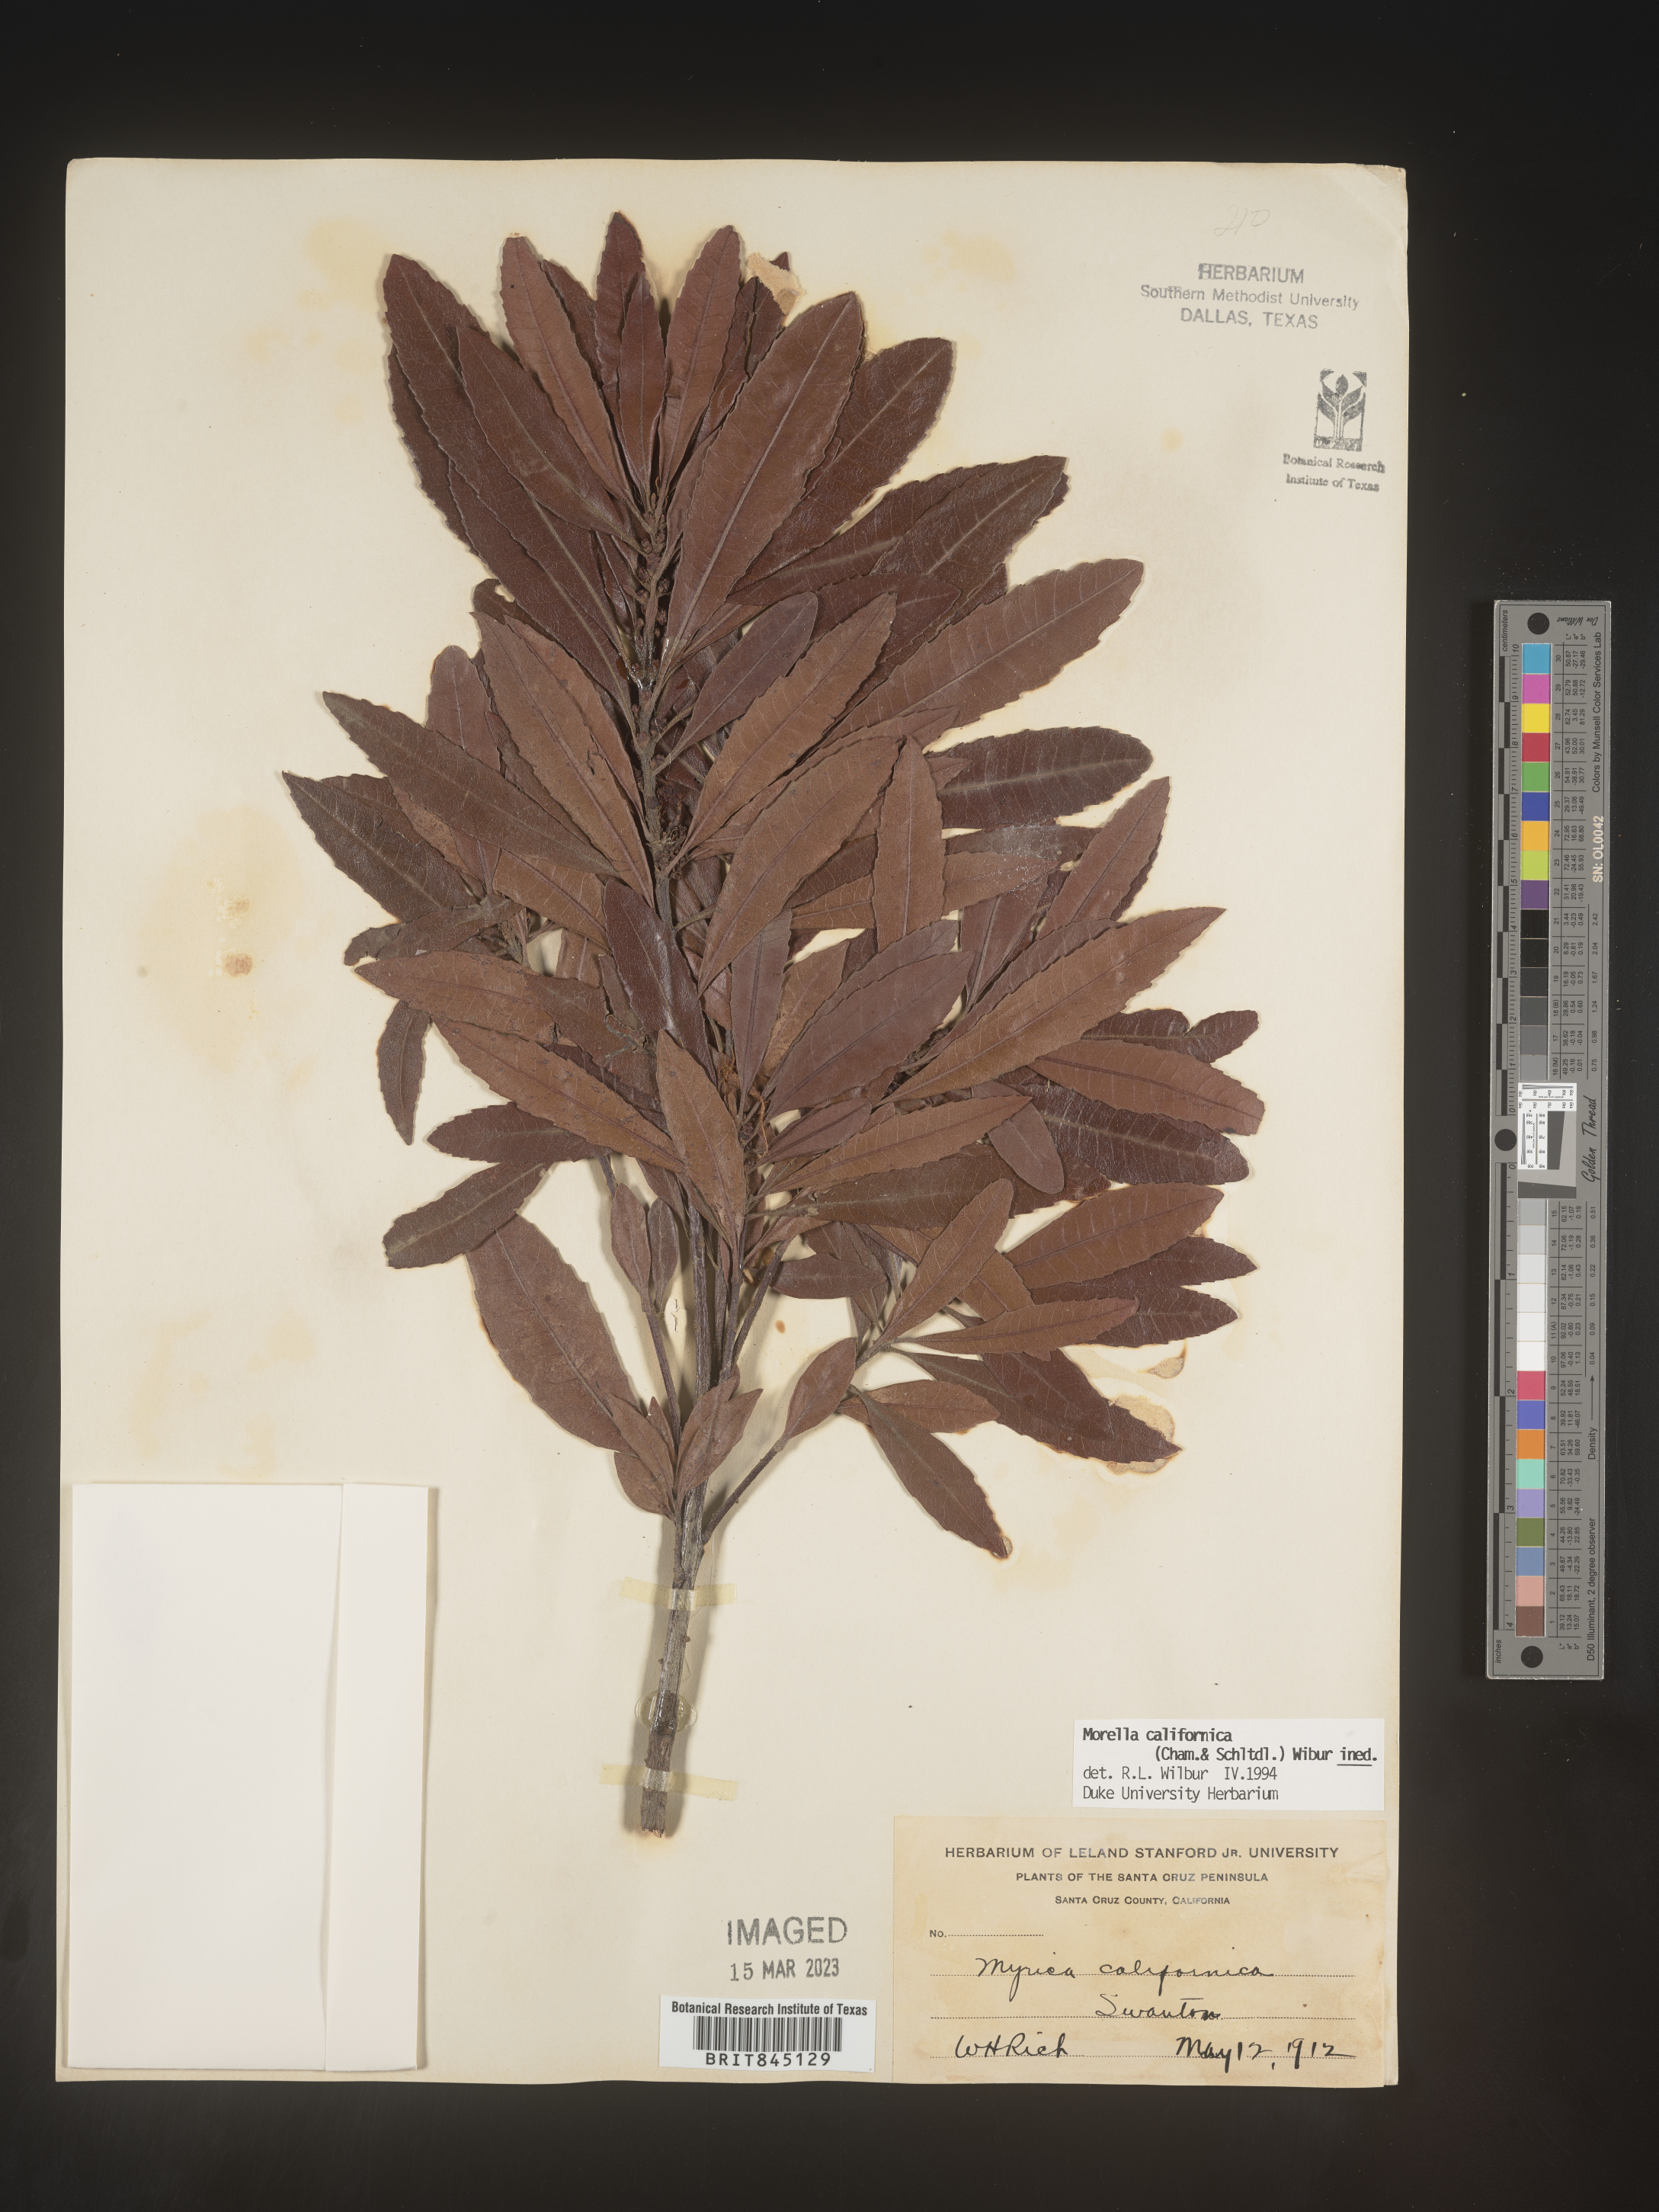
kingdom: Plantae
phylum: Tracheophyta
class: Magnoliopsida
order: Fagales
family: Myricaceae
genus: Morella
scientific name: Morella californica
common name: California wax-myrtle
